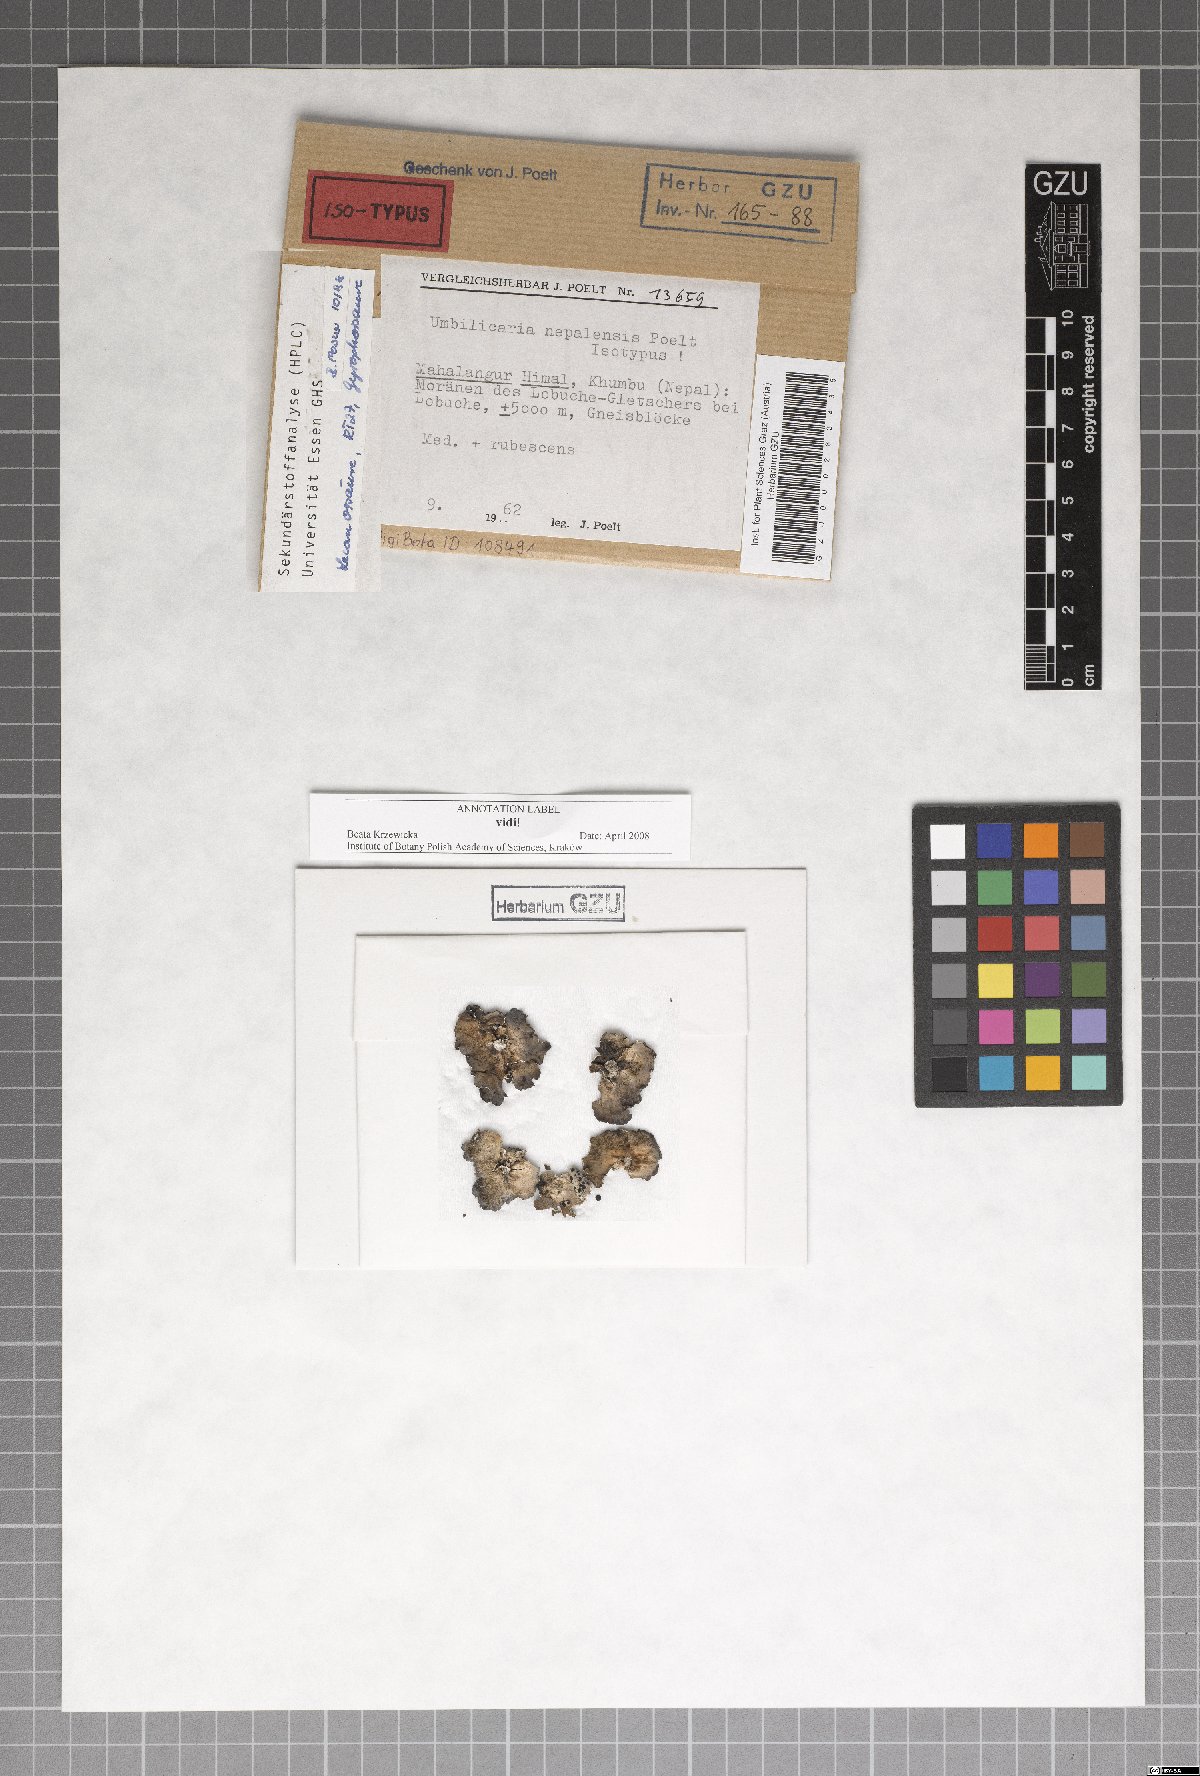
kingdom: Fungi
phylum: Ascomycota
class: Lecanoromycetes
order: Umbilicariales
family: Umbilicariaceae
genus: Umbilicaria
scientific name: Umbilicaria
